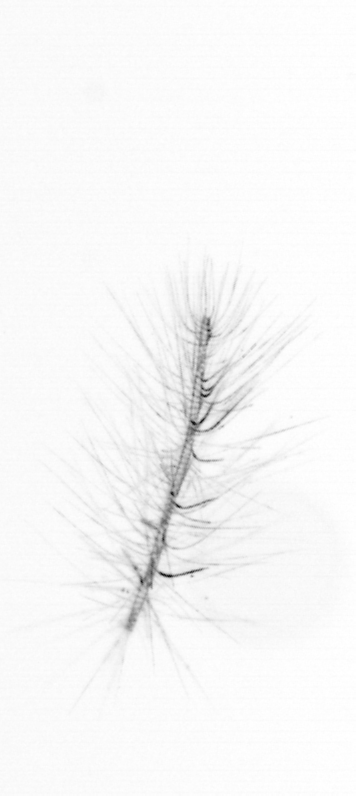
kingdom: Chromista
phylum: Ochrophyta
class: Bacillariophyceae
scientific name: Bacillariophyceae
